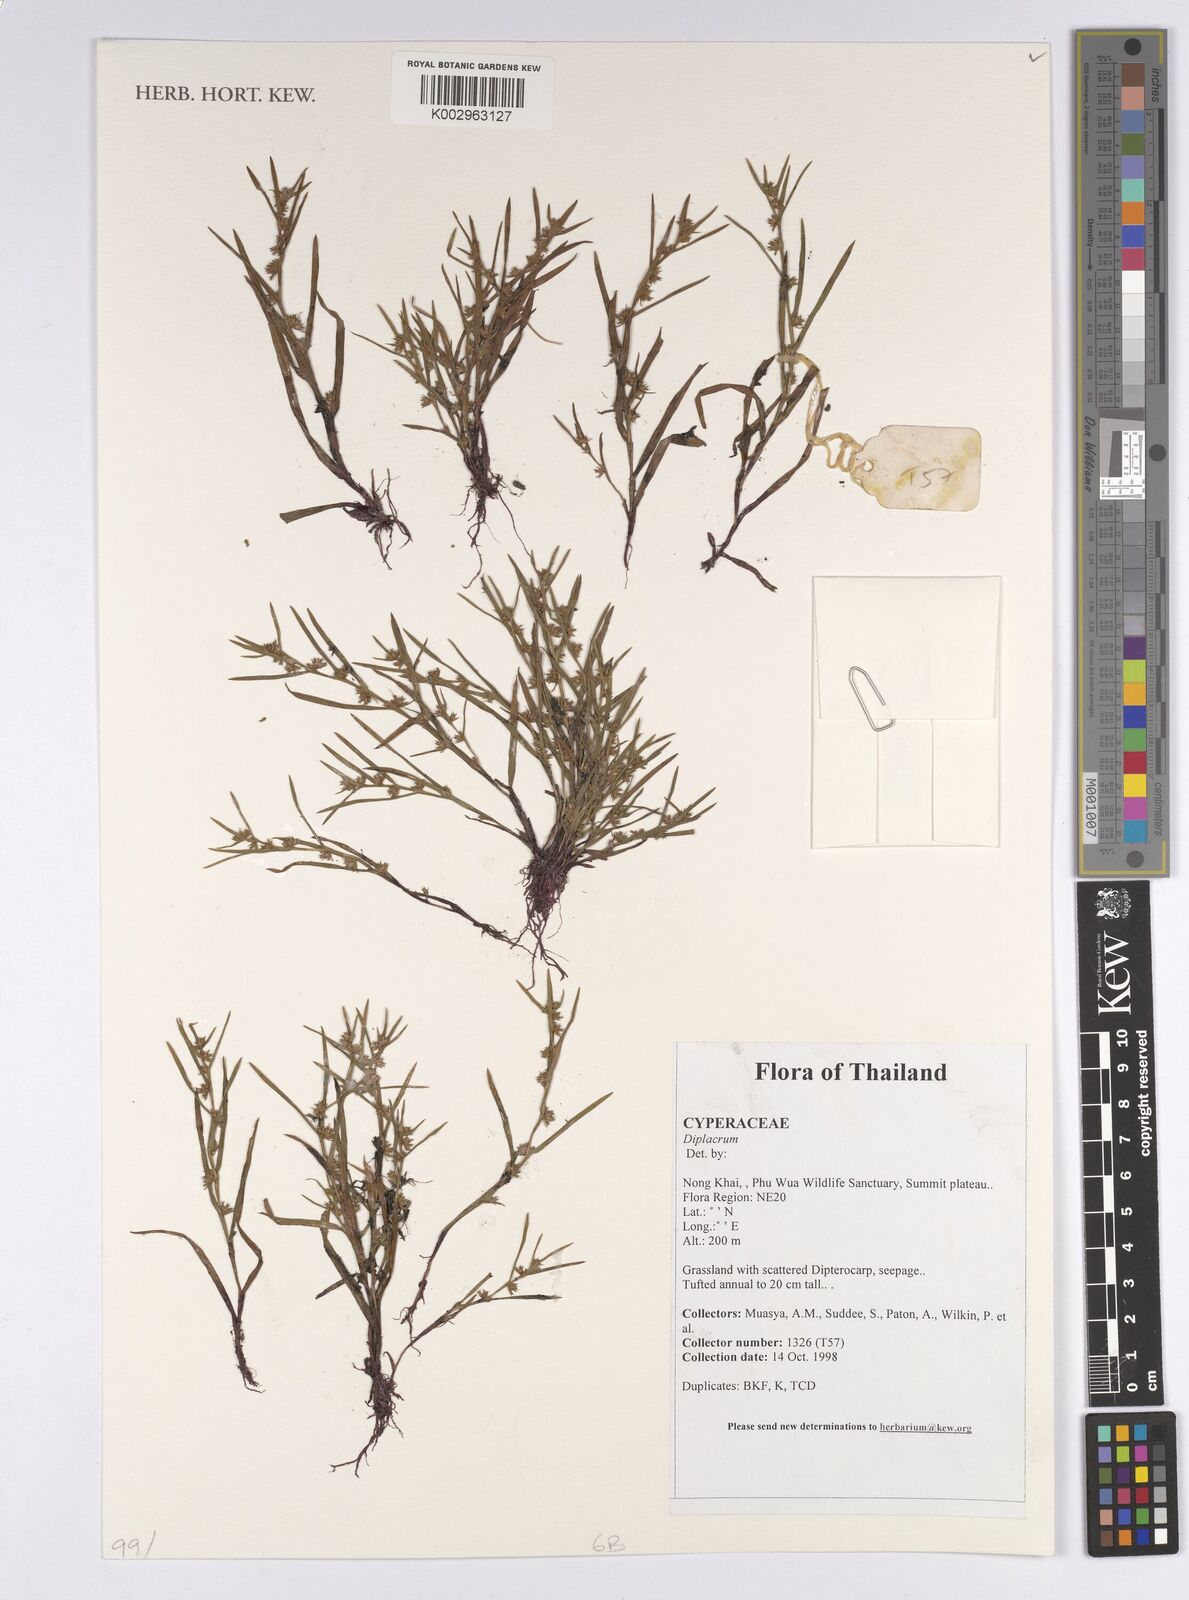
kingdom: Plantae
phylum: Tracheophyta
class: Liliopsida
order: Poales
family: Cyperaceae
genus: Diplacrum
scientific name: Diplacrum
